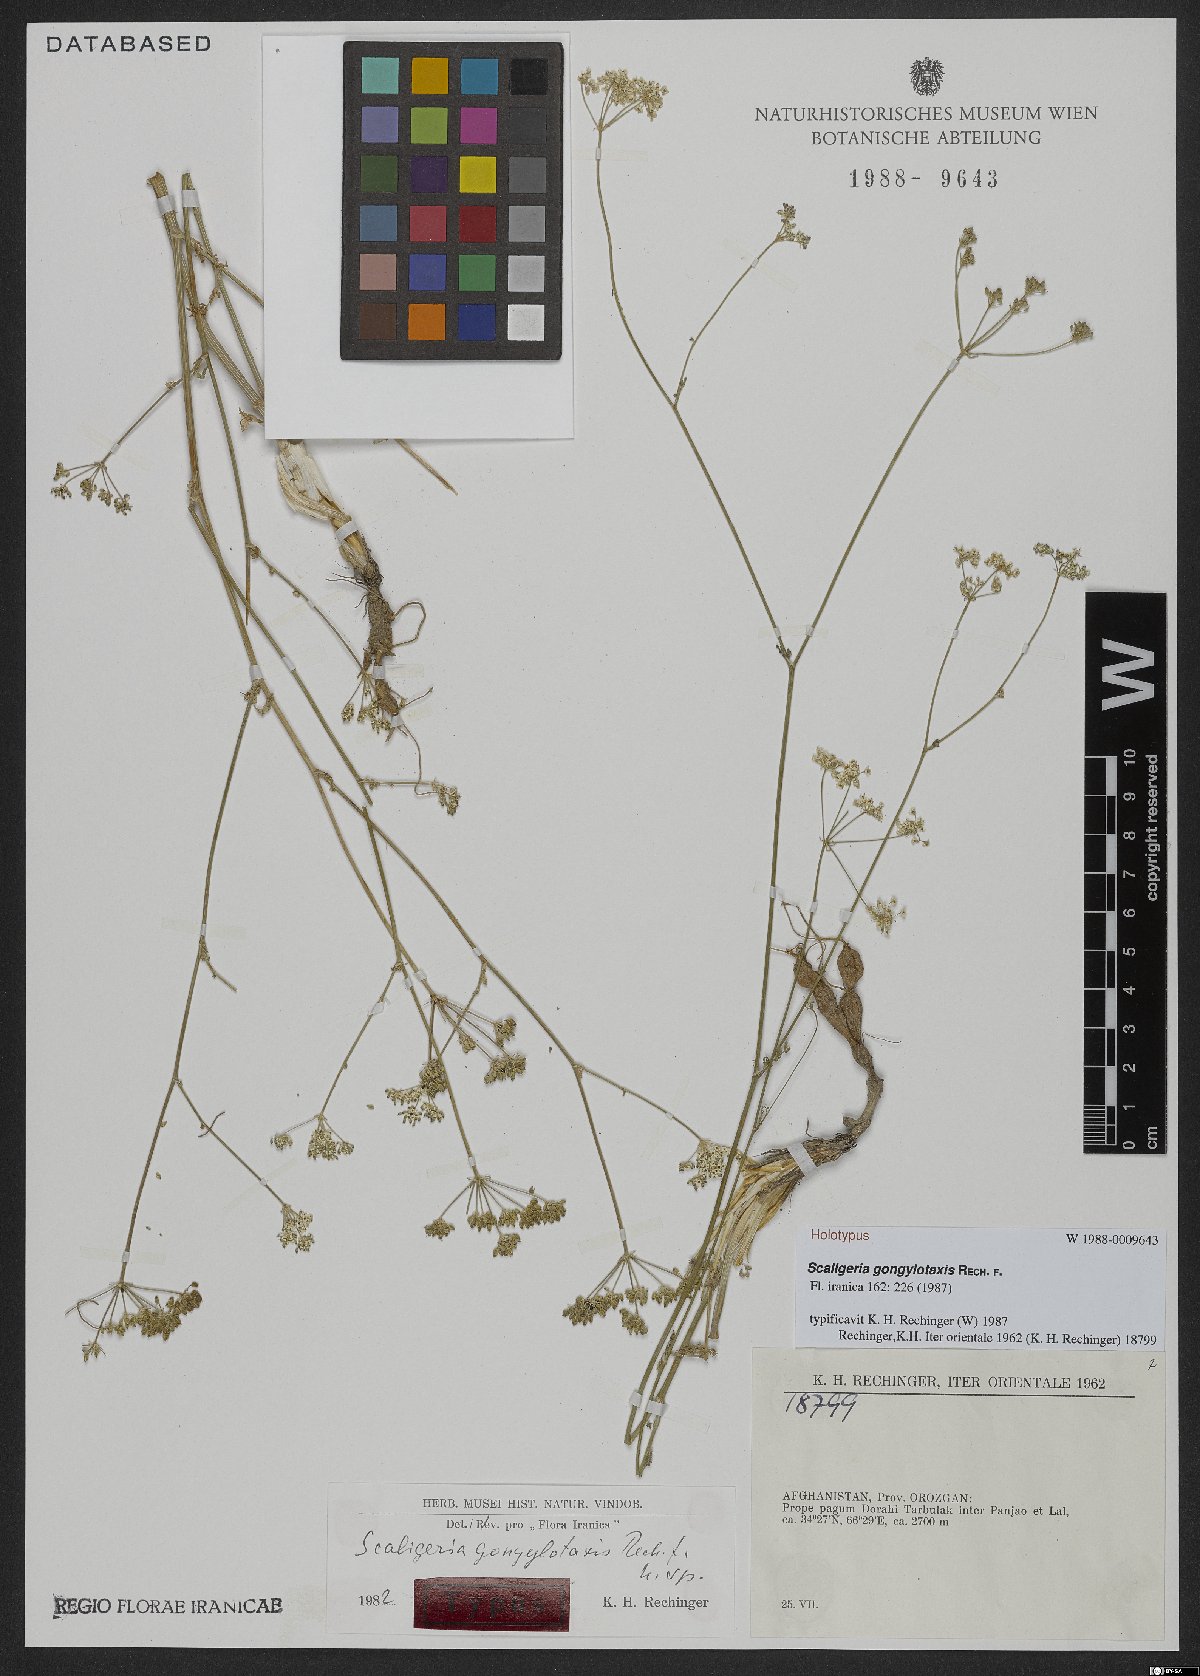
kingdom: Plantae
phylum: Tracheophyta
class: Magnoliopsida
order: Apiales
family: Apiaceae
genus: Gongylotaxis
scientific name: Gongylotaxis rechingeri
